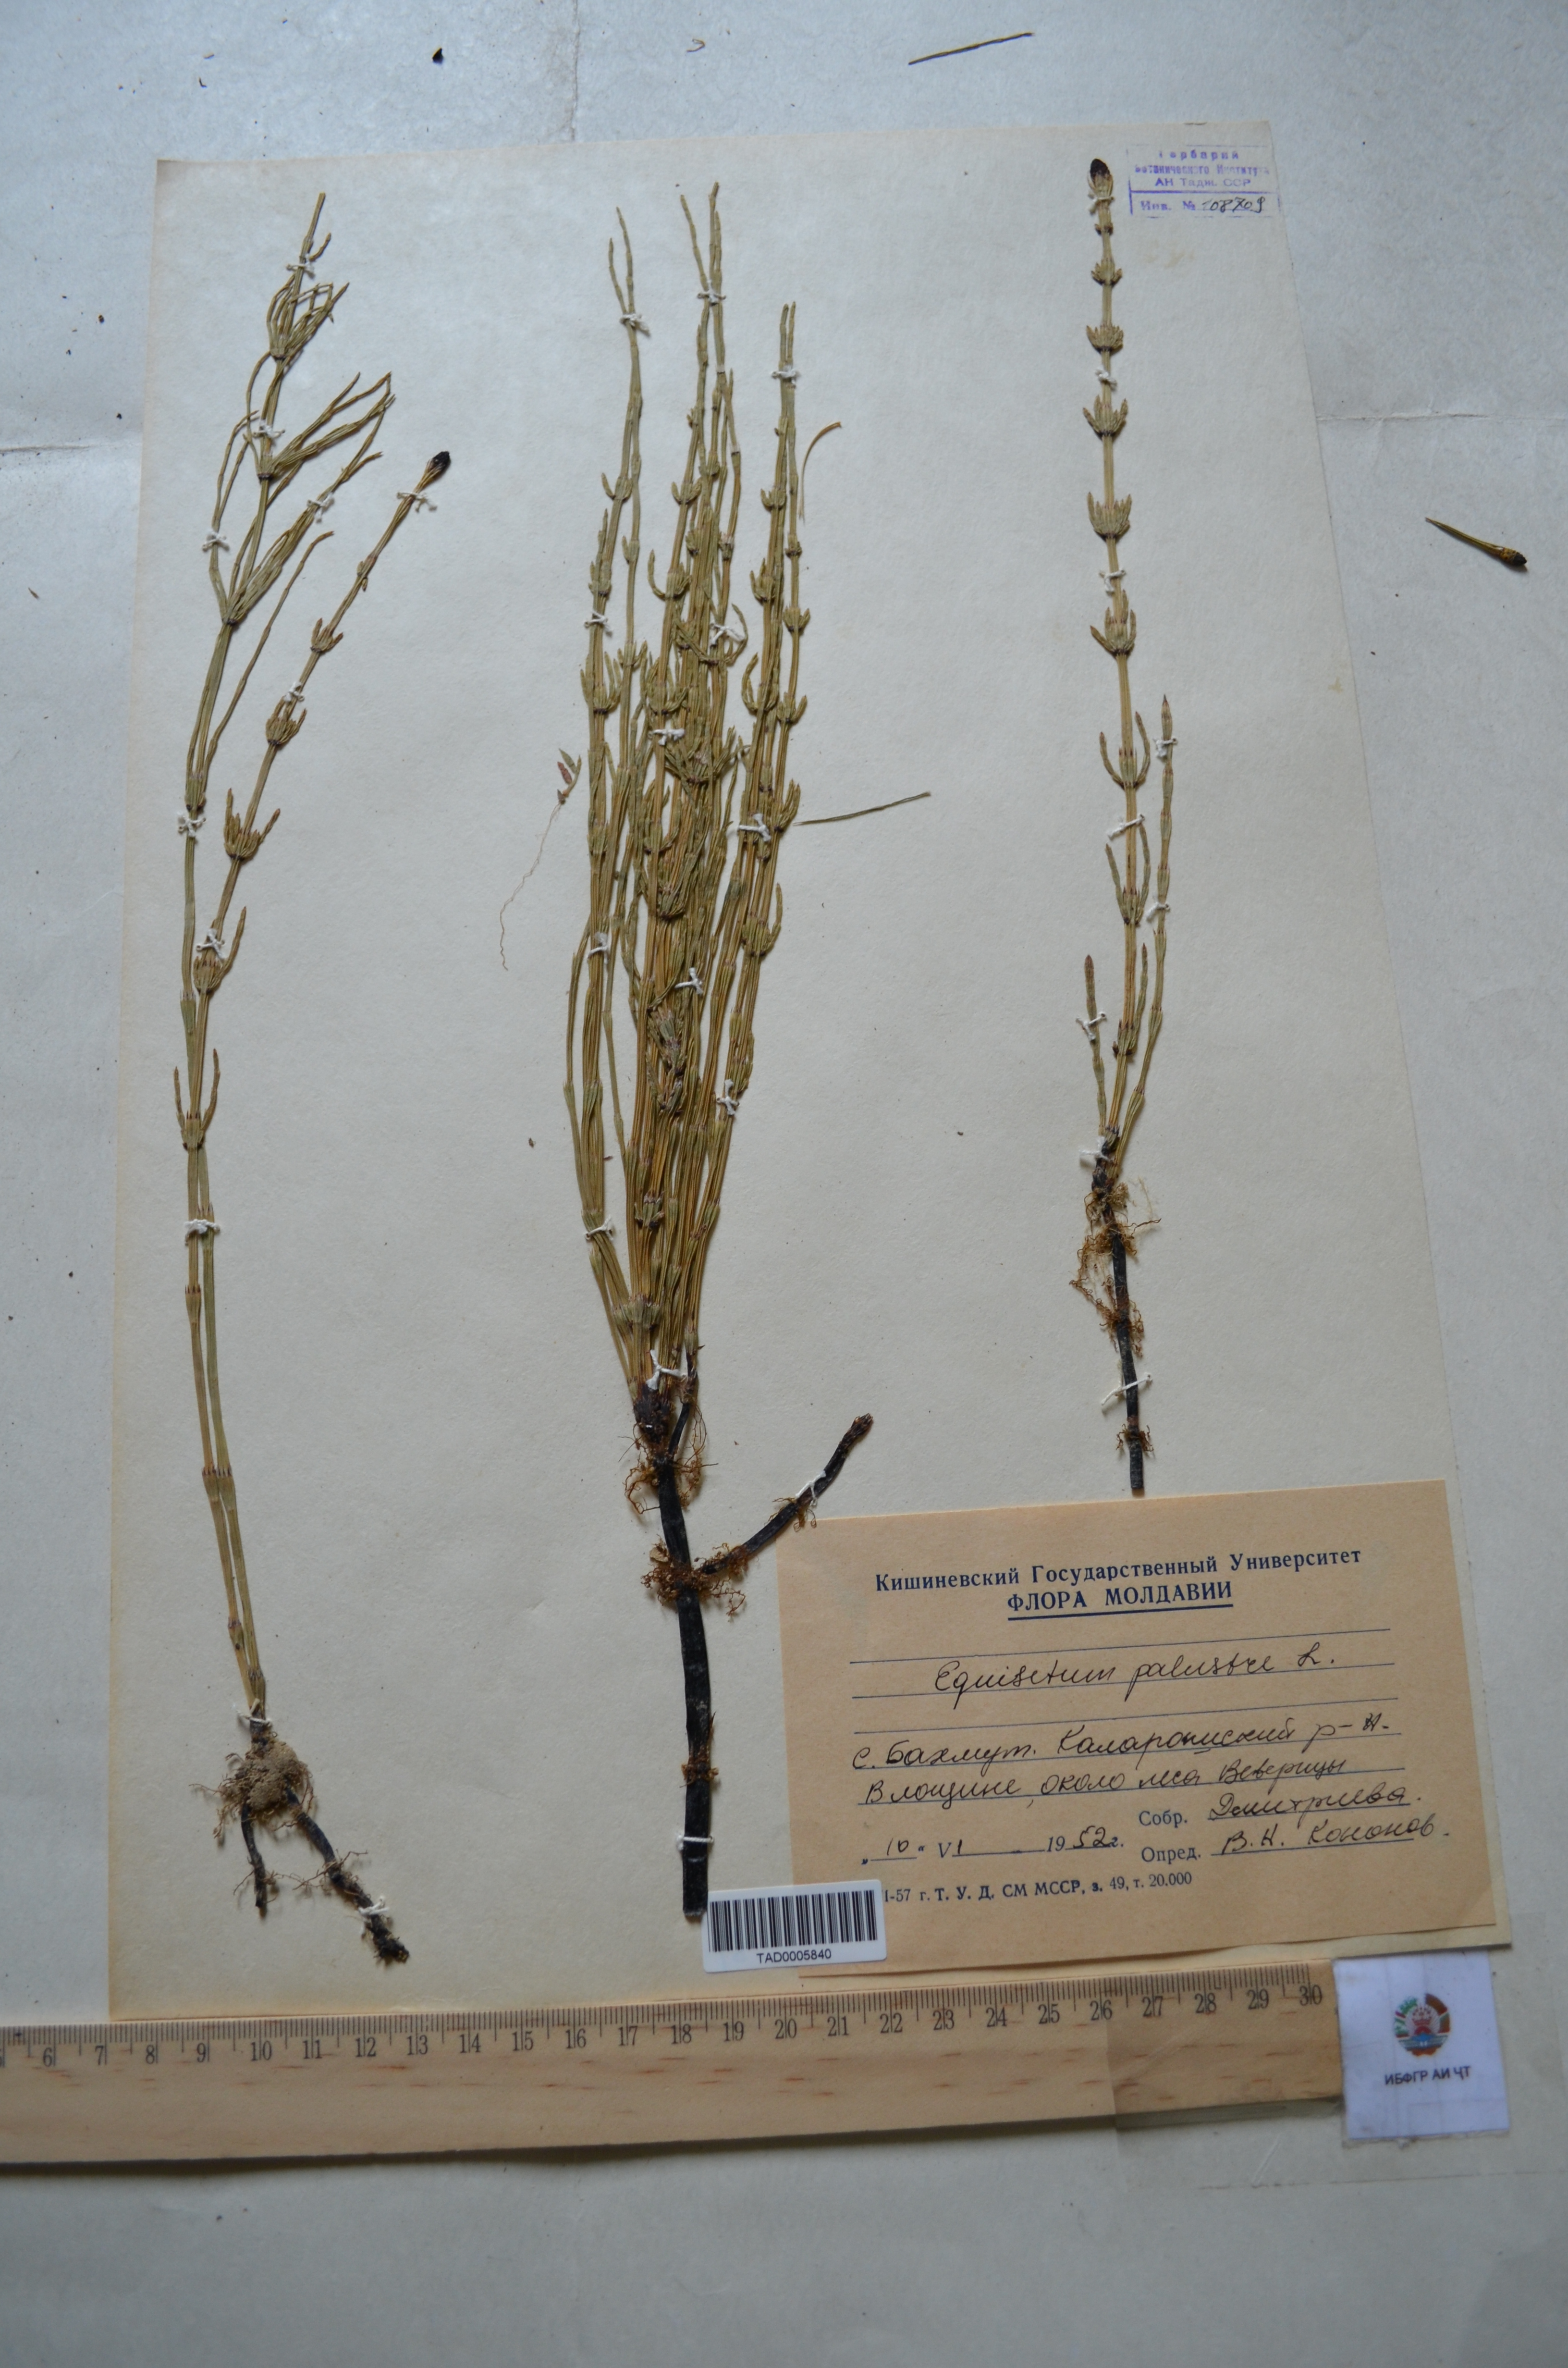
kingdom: Plantae
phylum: Tracheophyta
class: Polypodiopsida
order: Equisetales
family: Equisetaceae
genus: Equisetum
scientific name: Equisetum palustre
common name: Marsh horsetail
